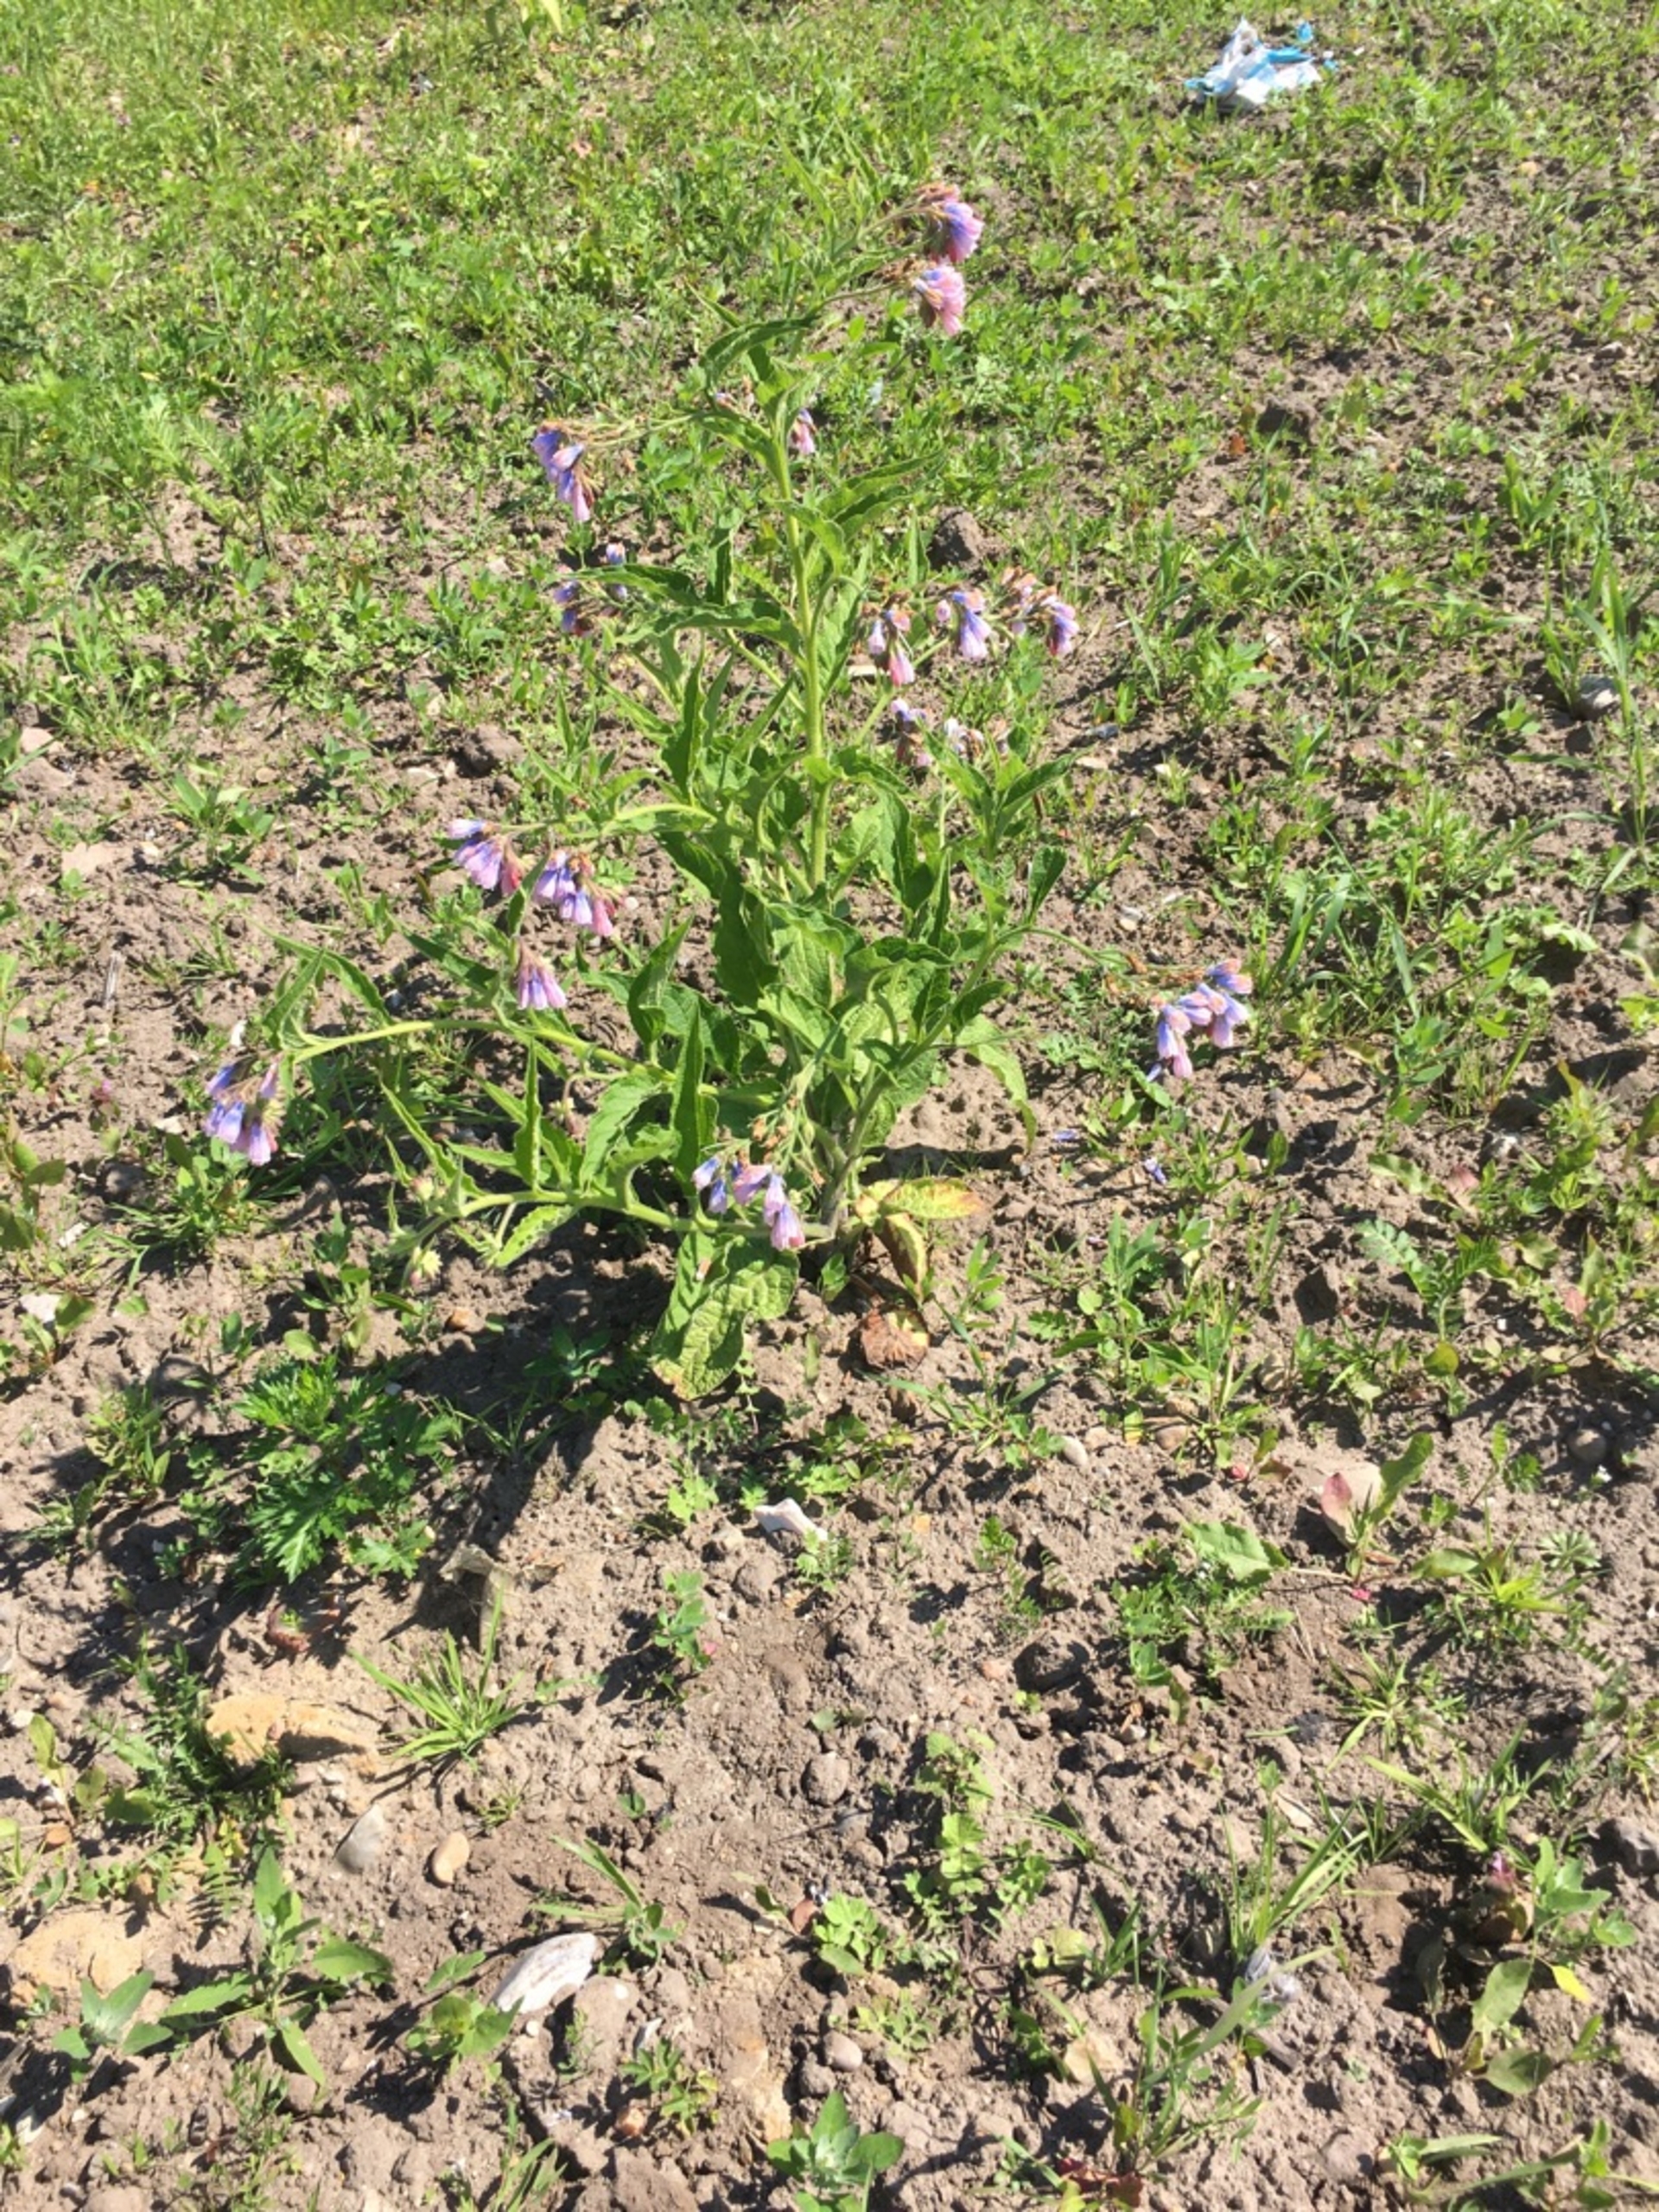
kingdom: Plantae
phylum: Tracheophyta
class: Magnoliopsida
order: Boraginales
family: Boraginaceae
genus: Symphytum
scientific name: Symphytum uplandicum
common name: Foder-kulsukker
